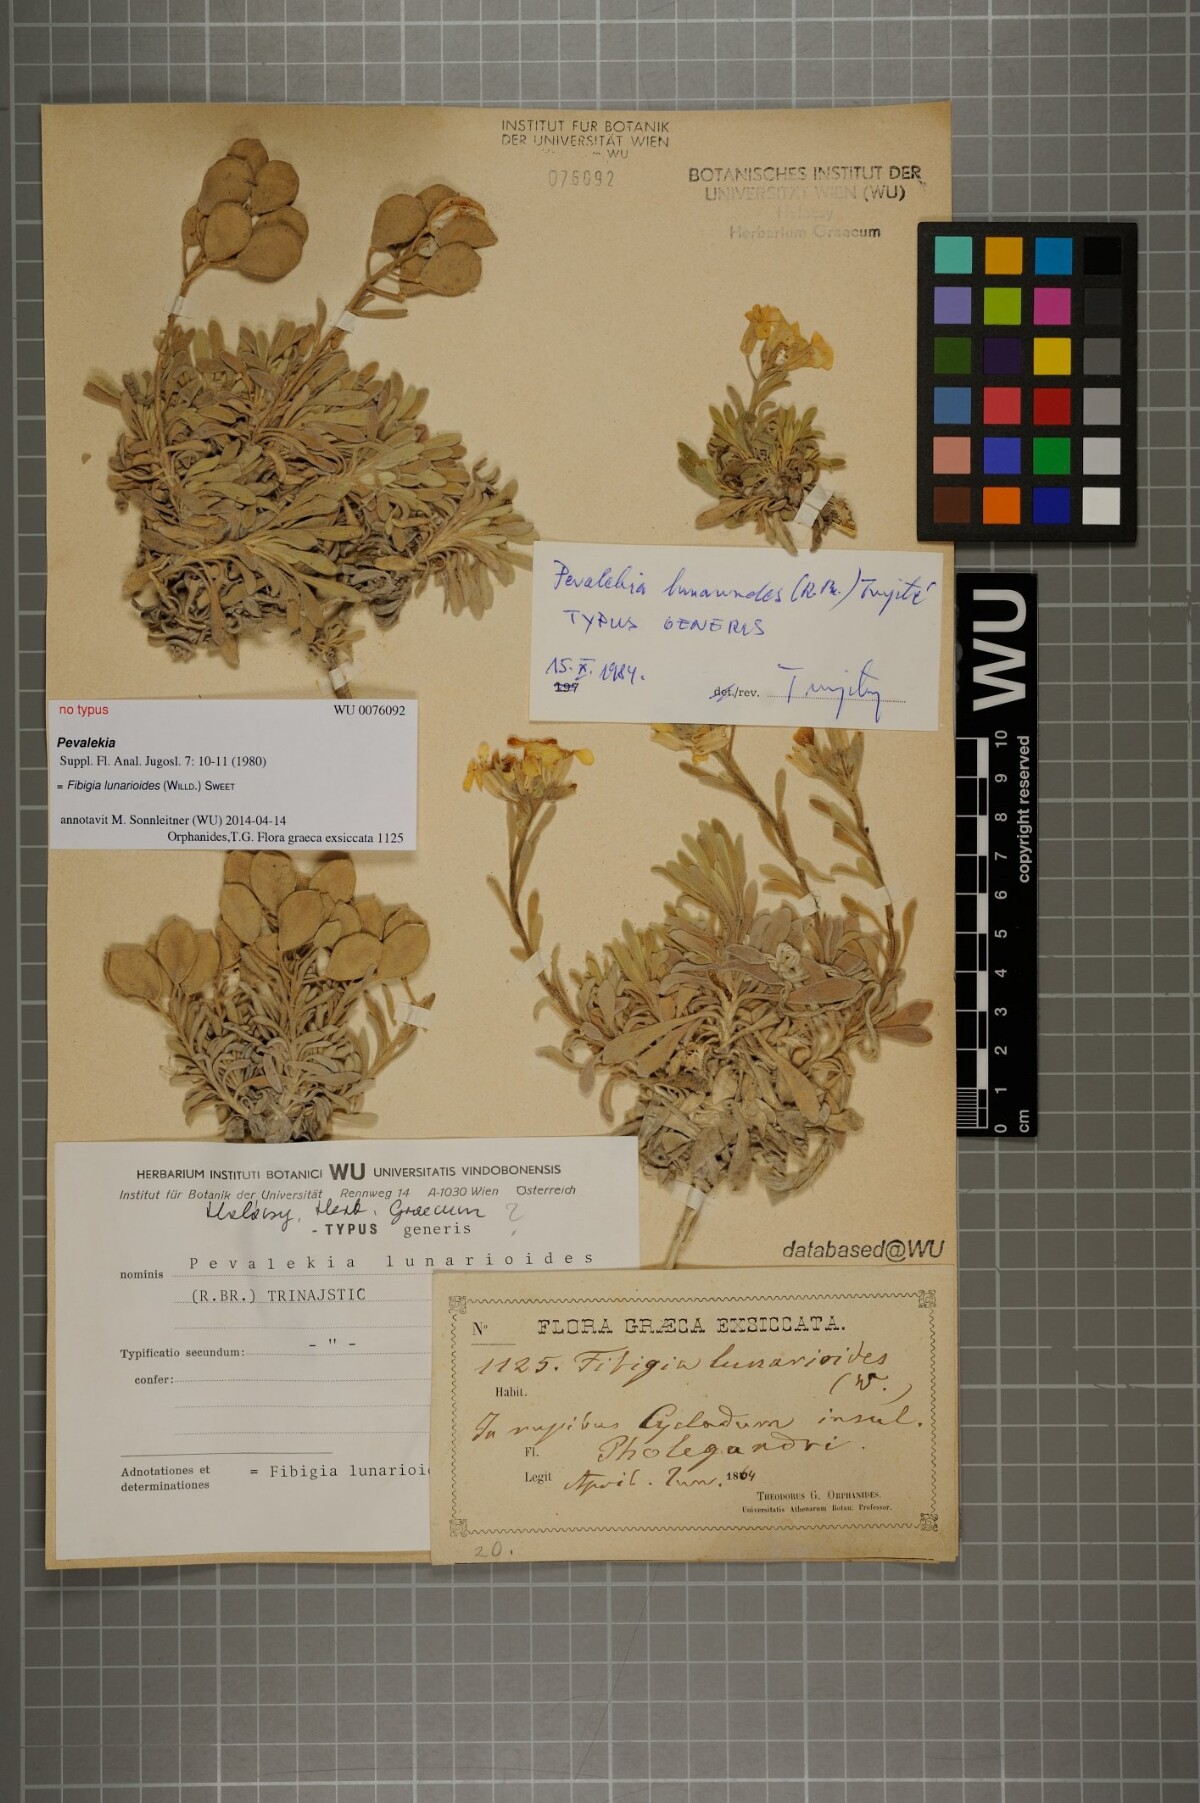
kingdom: Plantae
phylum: Tracheophyta
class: Magnoliopsida
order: Brassicales
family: Brassicaceae
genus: Acuston
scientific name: Acuston perenne
